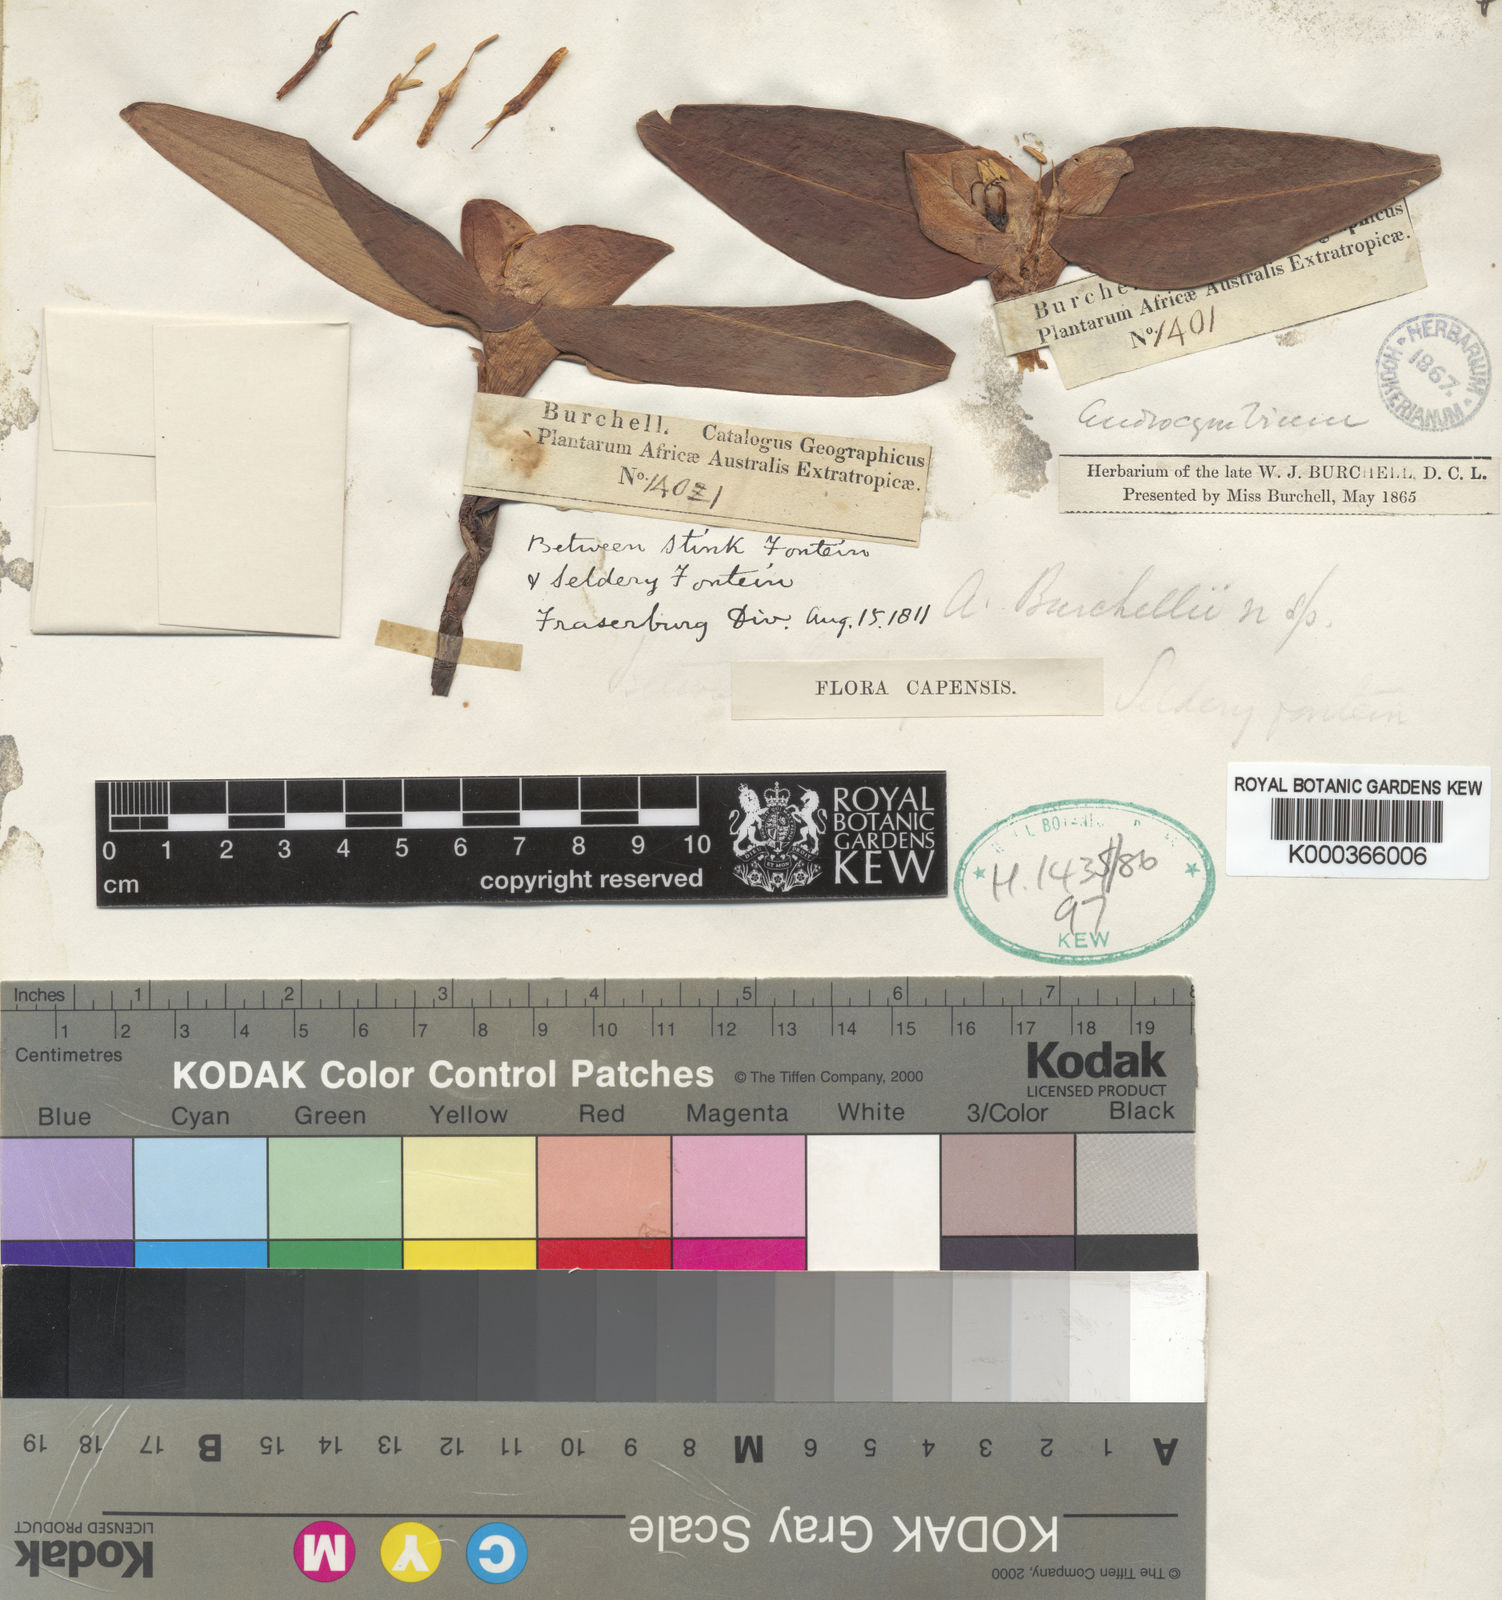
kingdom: Plantae
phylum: Tracheophyta
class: Liliopsida
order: Liliales
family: Colchicaceae
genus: Colchicum
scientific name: Colchicum burchellii
